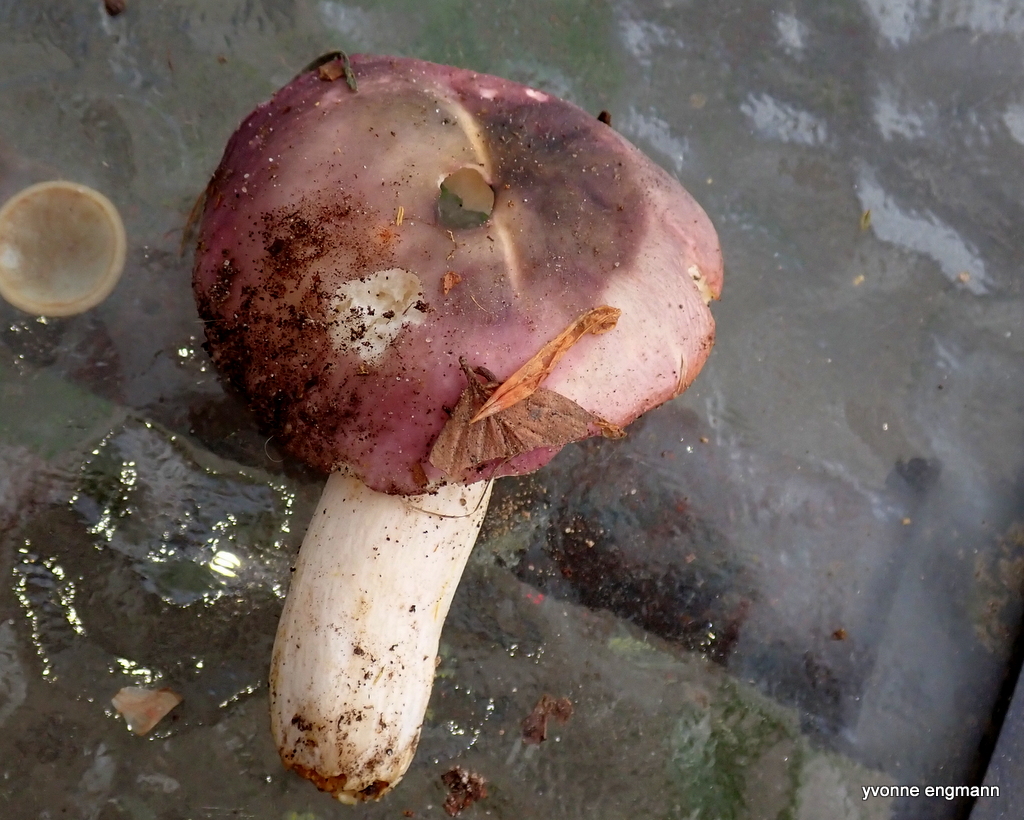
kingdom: Fungi
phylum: Basidiomycota
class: Agaricomycetes
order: Russulales
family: Russulaceae
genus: Russula
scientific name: Russula
